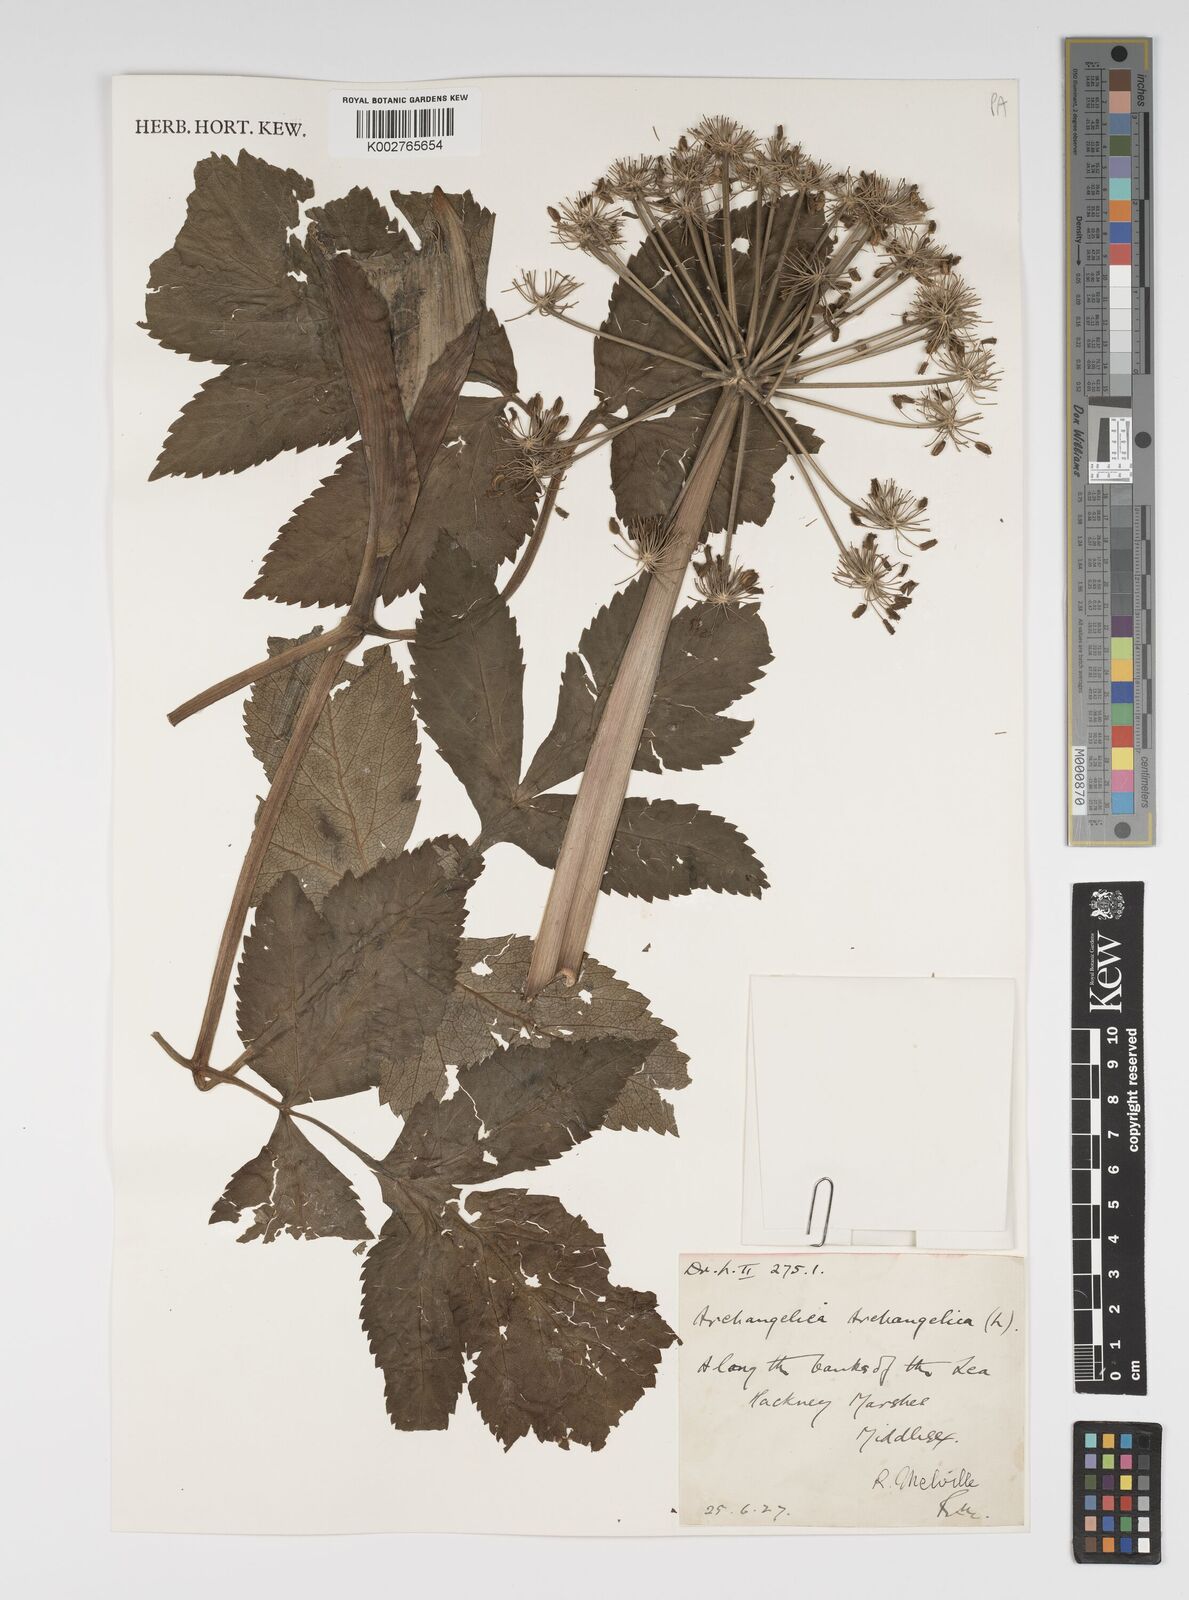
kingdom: Plantae
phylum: Tracheophyta
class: Magnoliopsida
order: Apiales
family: Apiaceae
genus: Angelica
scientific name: Angelica archangelica
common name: Garden angelica
